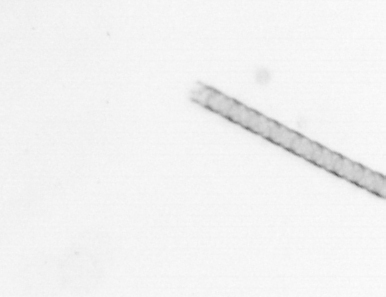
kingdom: Chromista
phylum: Ochrophyta
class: Bacillariophyceae
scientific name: Bacillariophyceae
